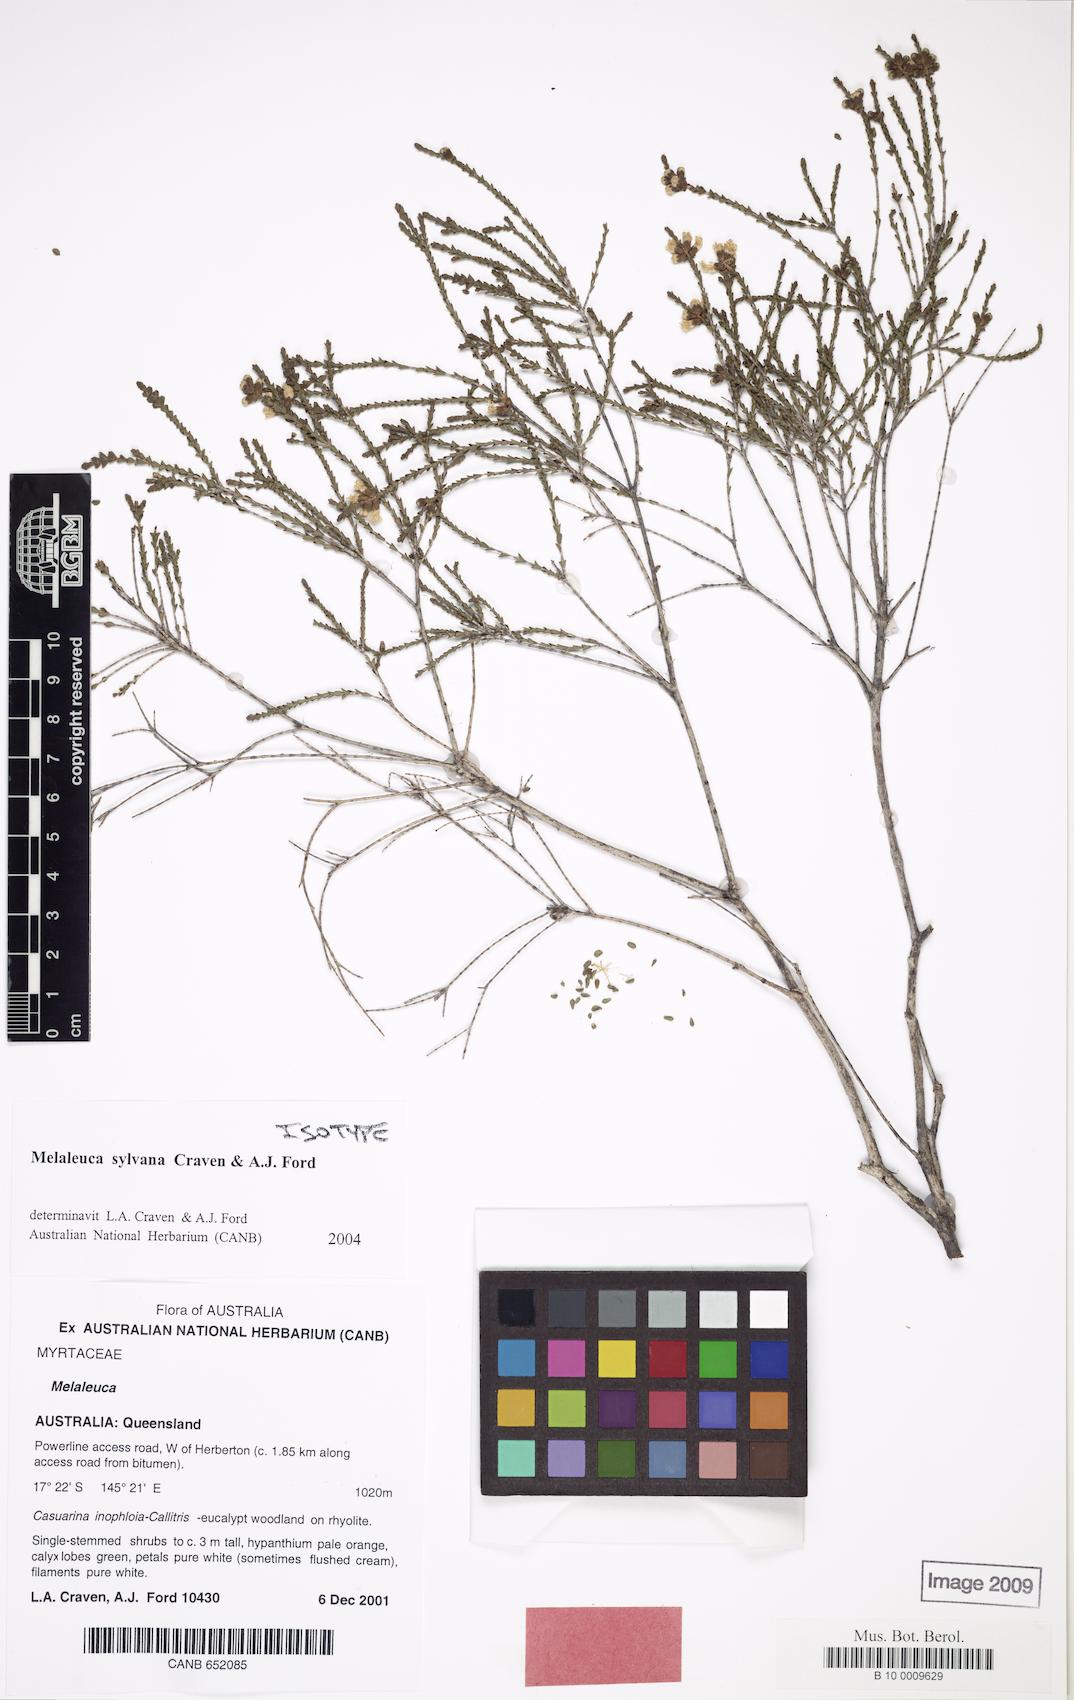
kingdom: Plantae
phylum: Tracheophyta
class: Magnoliopsida
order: Myrtales
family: Myrtaceae
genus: Melaleuca
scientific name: Melaleuca sylvana
